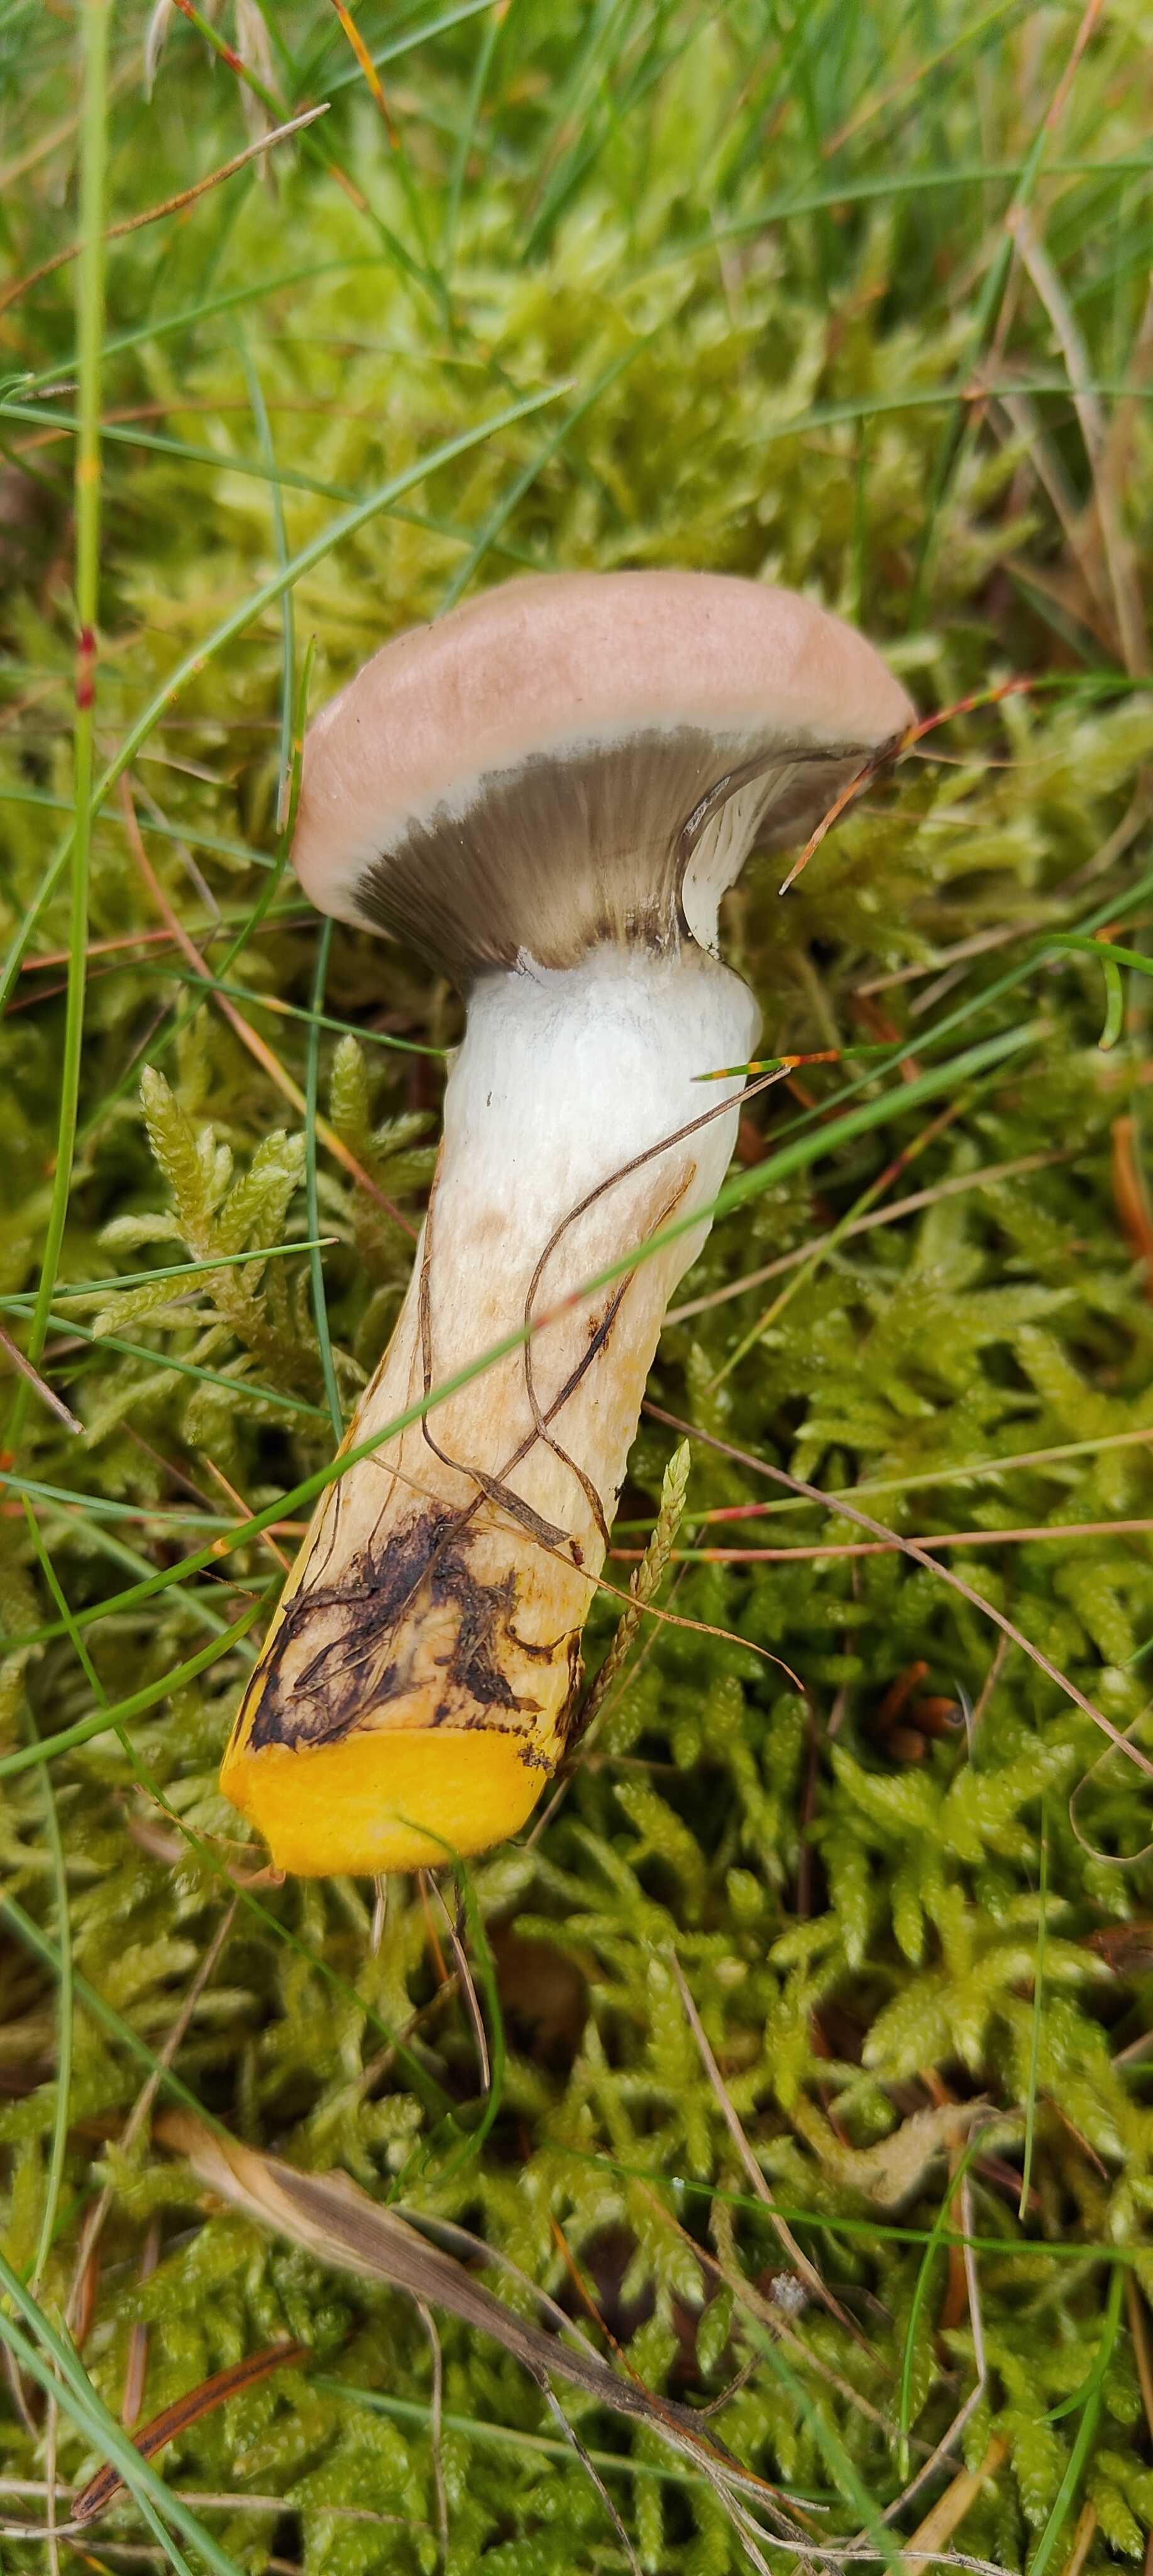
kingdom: Fungi
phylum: Basidiomycota
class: Agaricomycetes
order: Boletales
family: Gomphidiaceae
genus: Gomphidius
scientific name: Gomphidius glutinosus
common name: grå slimslør
